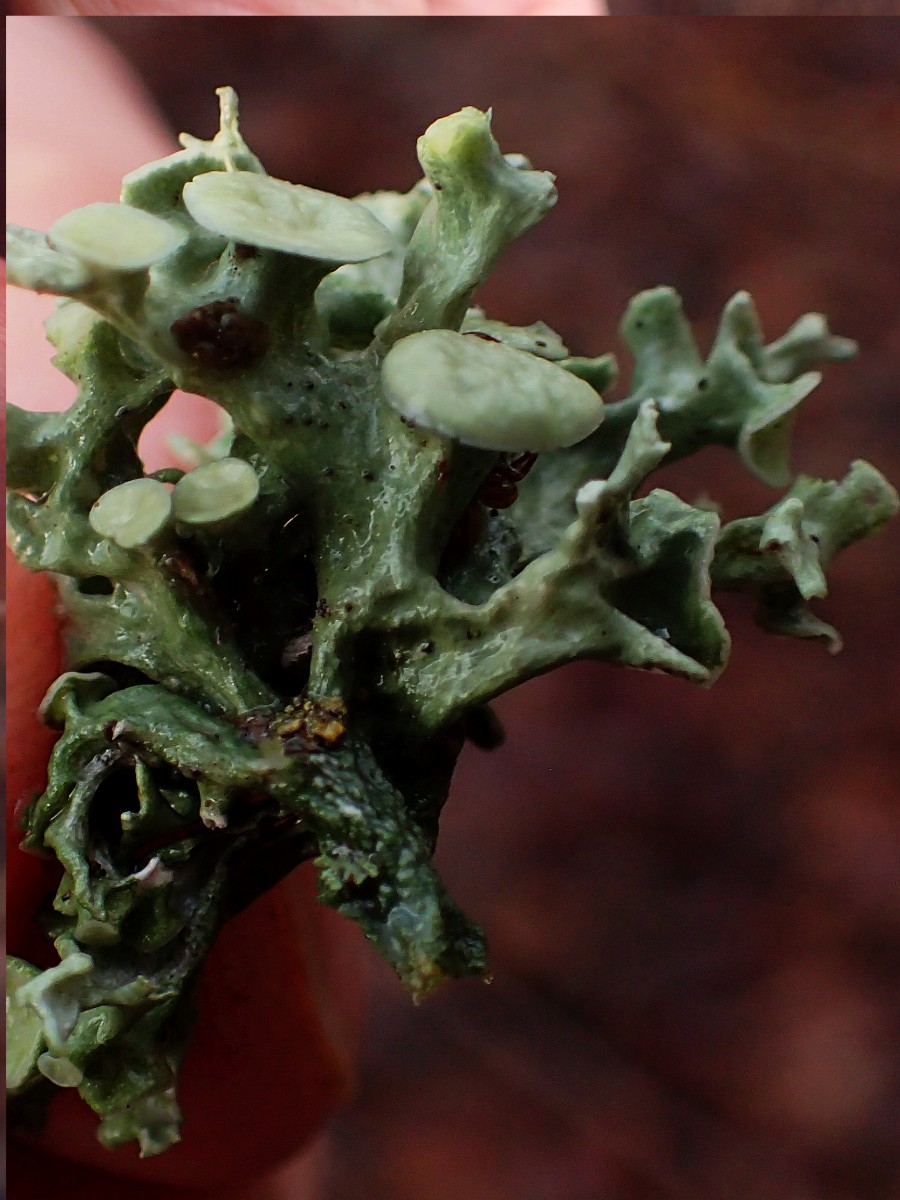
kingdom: Fungi
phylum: Ascomycota
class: Lecanoromycetes
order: Lecanorales
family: Ramalinaceae
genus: Ramalina
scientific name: Ramalina fastigiata
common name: tue-grenlav
